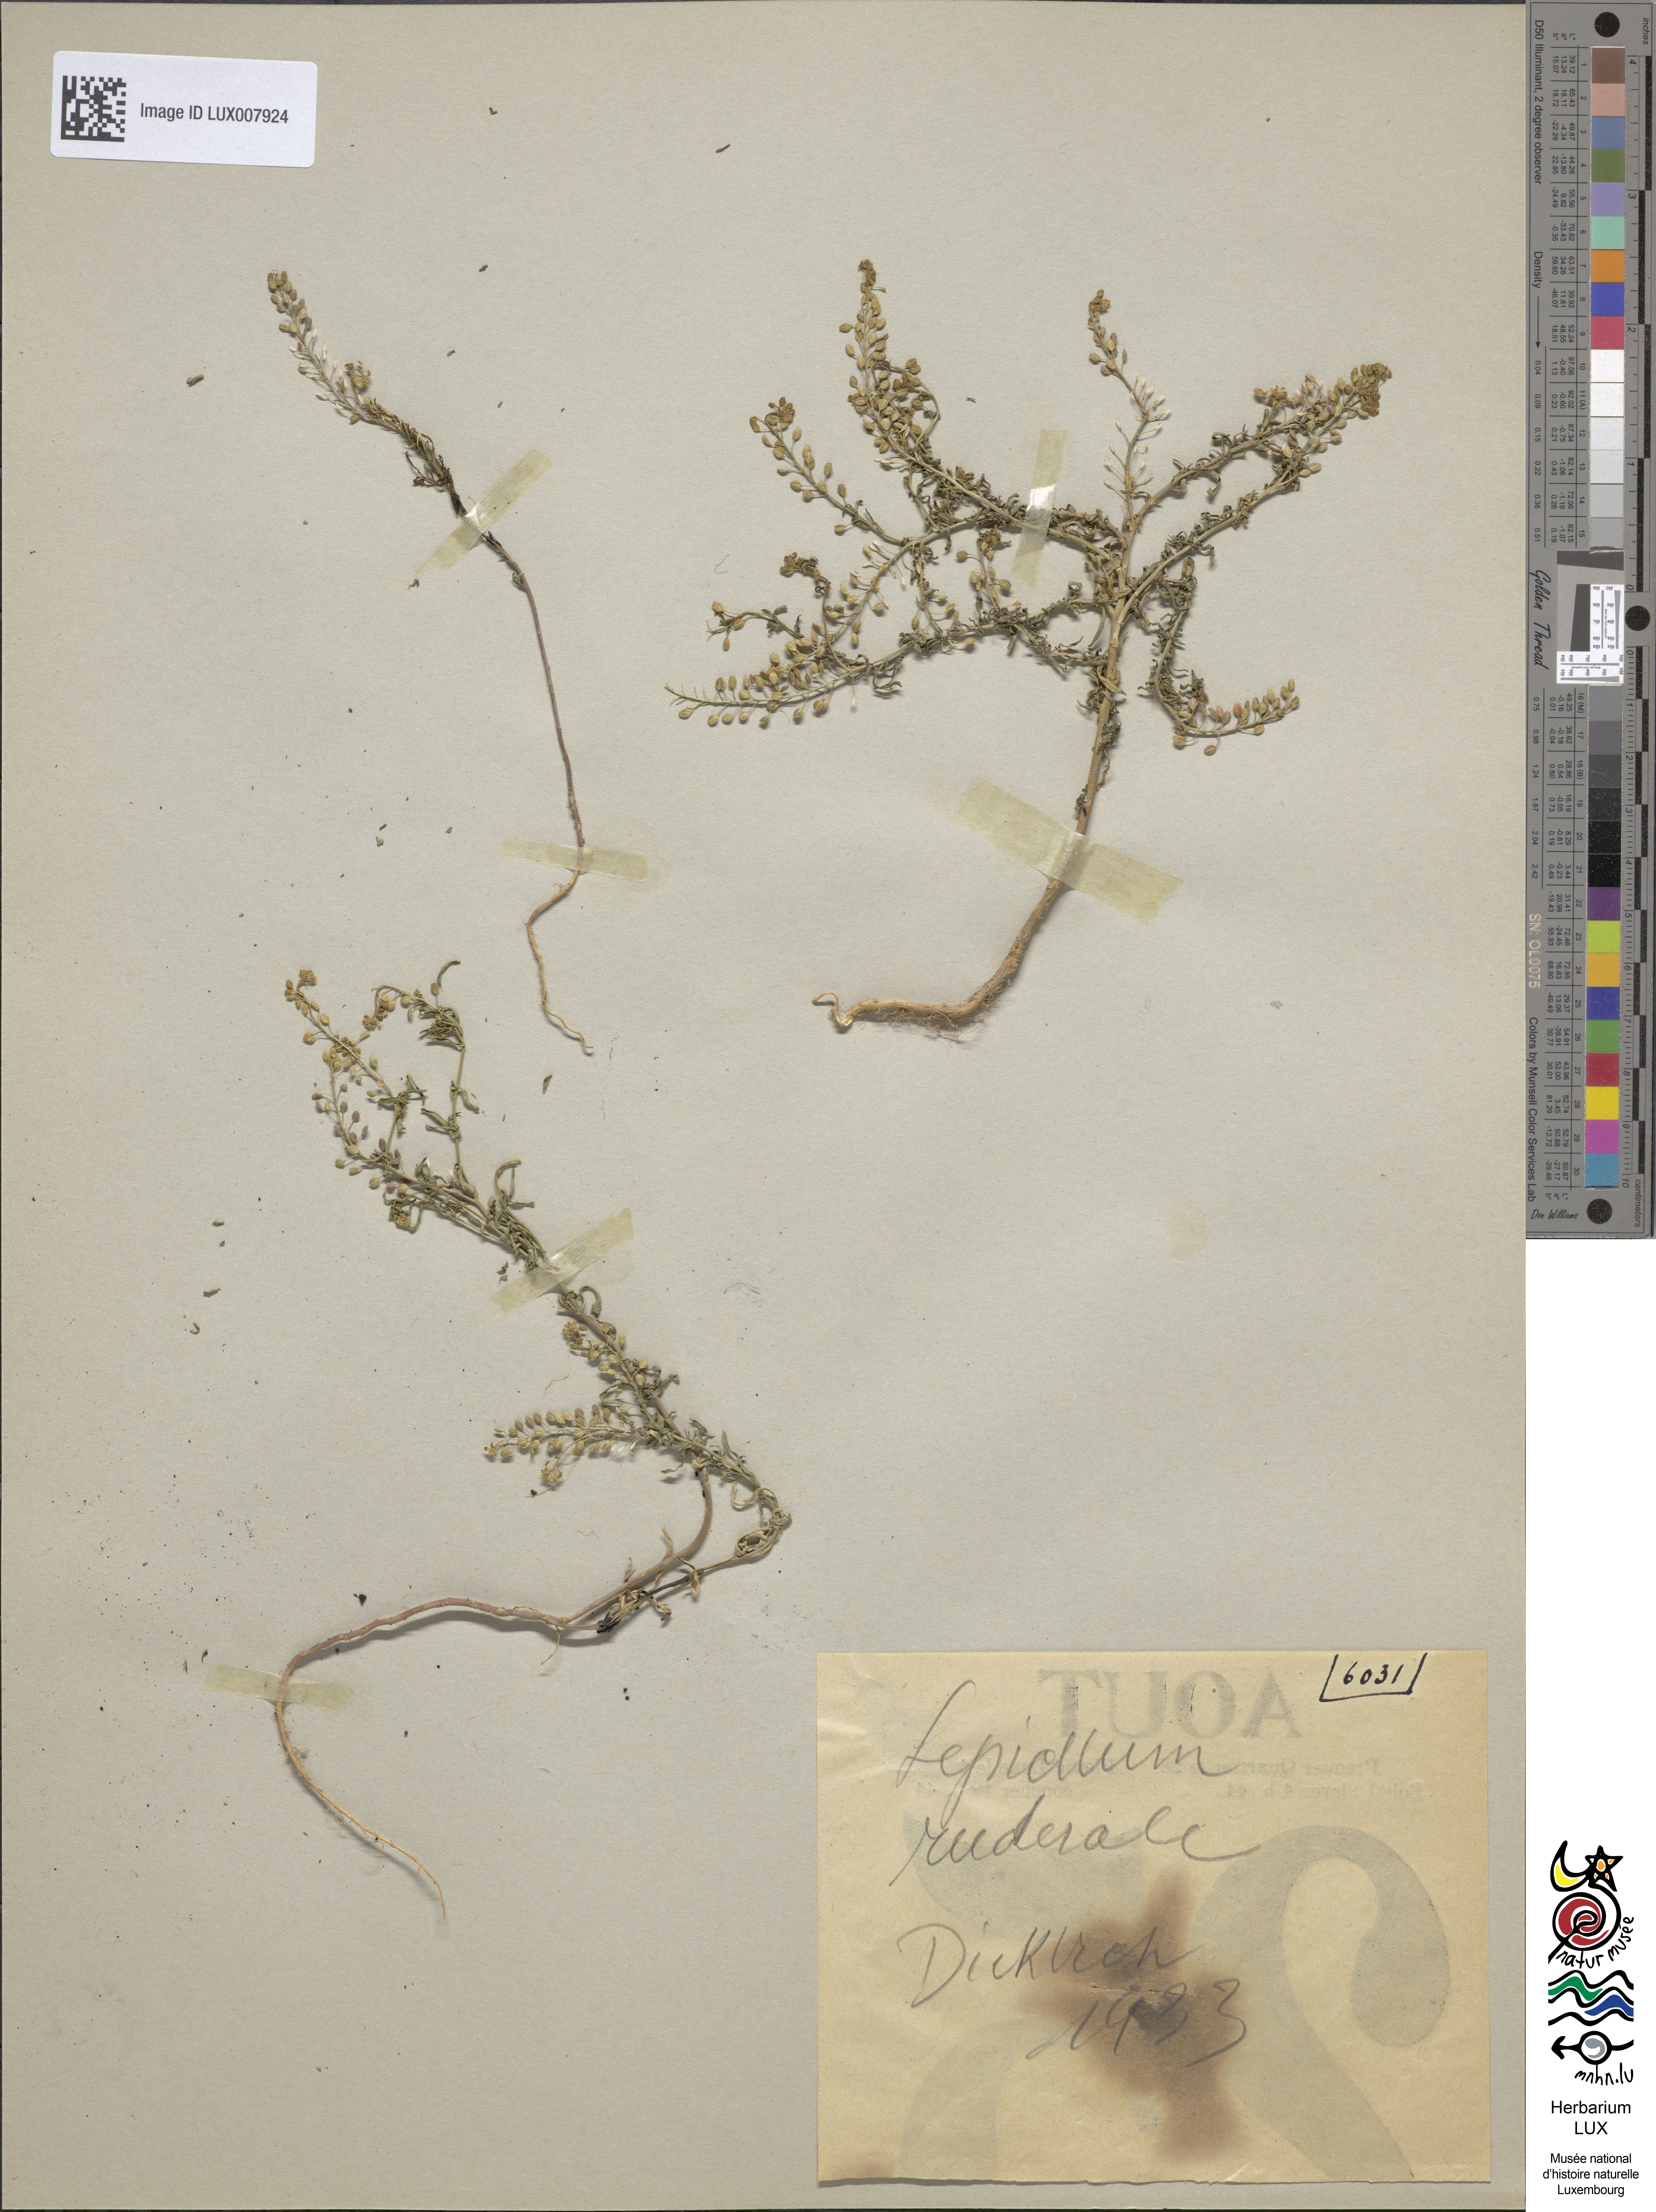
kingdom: Plantae
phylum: Tracheophyta
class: Magnoliopsida
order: Brassicales
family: Brassicaceae
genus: Lepidium
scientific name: Lepidium ruderale
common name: Narrow-leaved pepperwort
